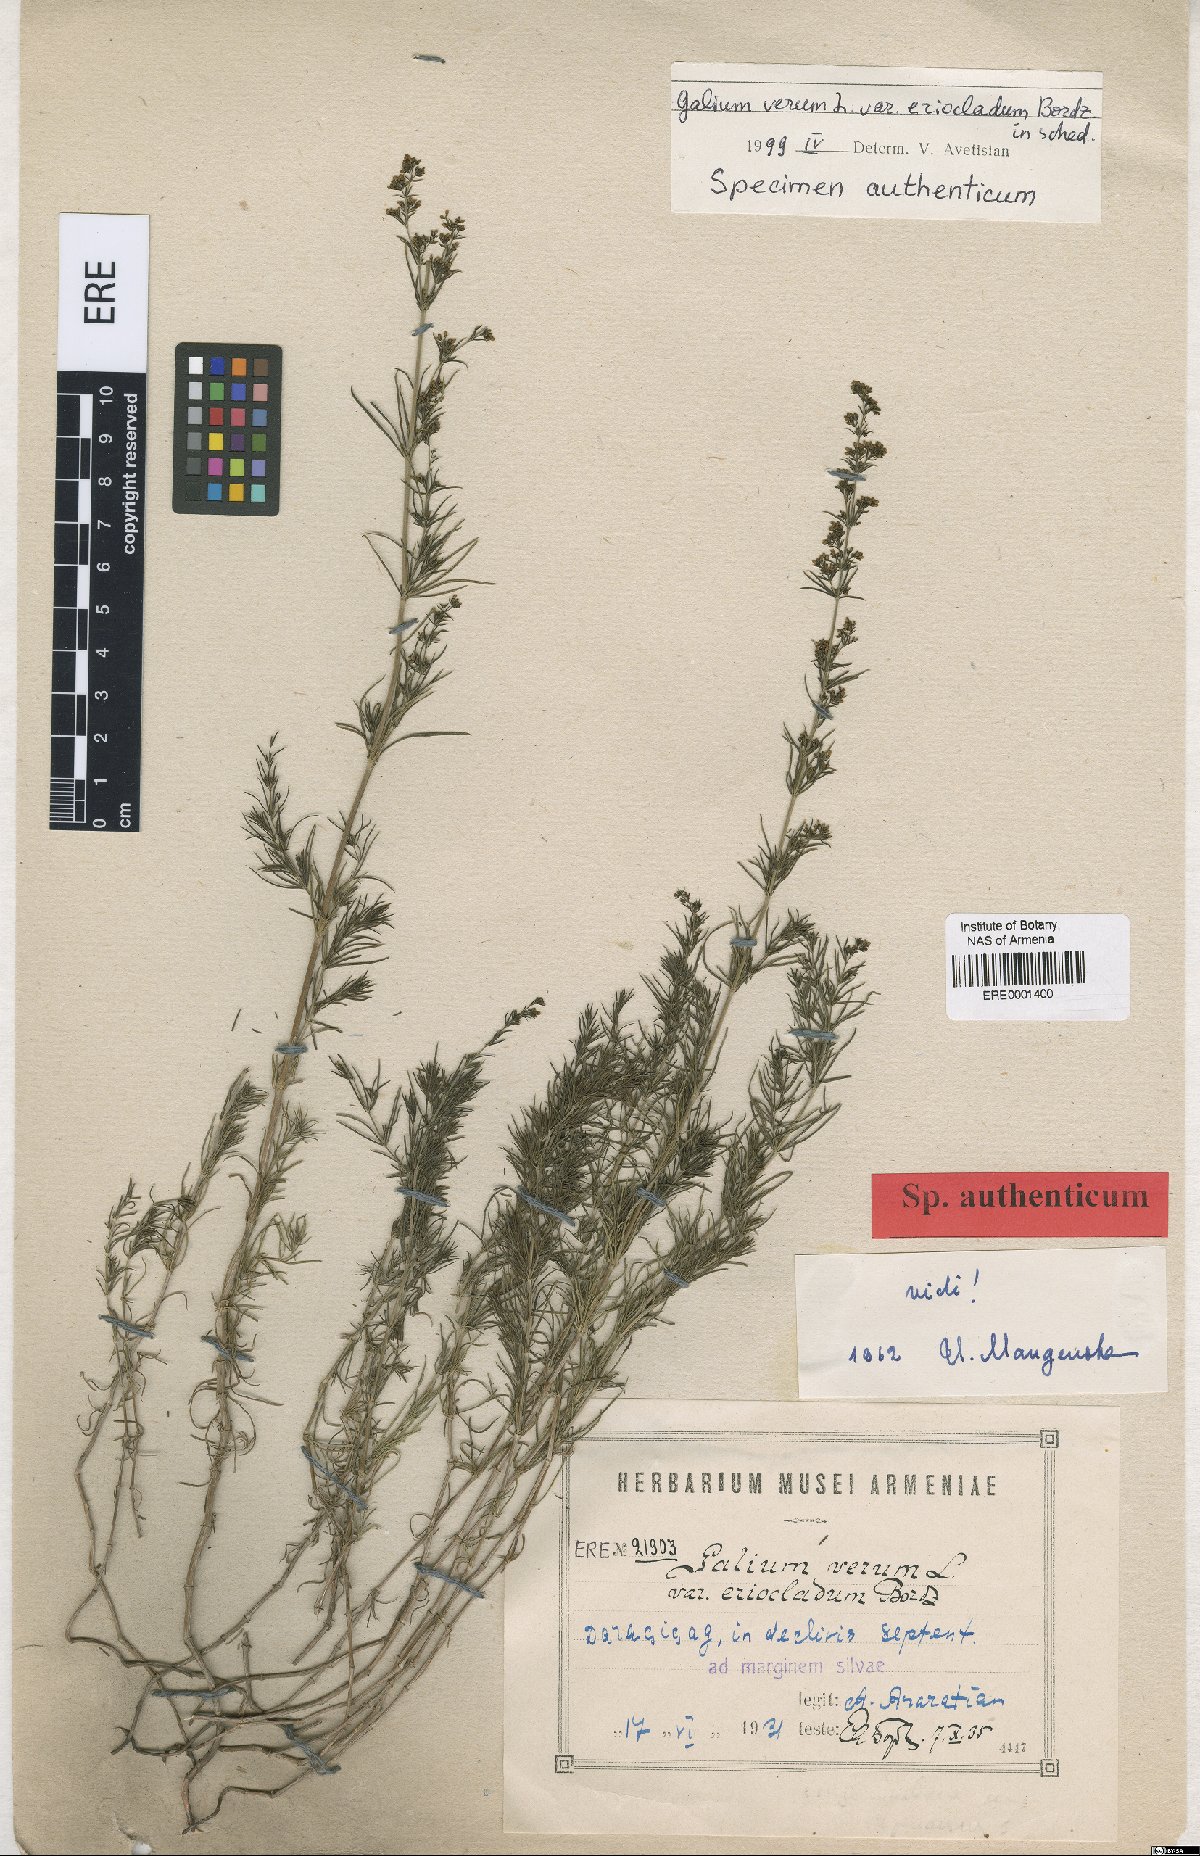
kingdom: Plantae
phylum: Tracheophyta
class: Magnoliopsida
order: Gentianales
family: Rubiaceae
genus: Galium
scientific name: Galium verum
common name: Lady's bedstraw
